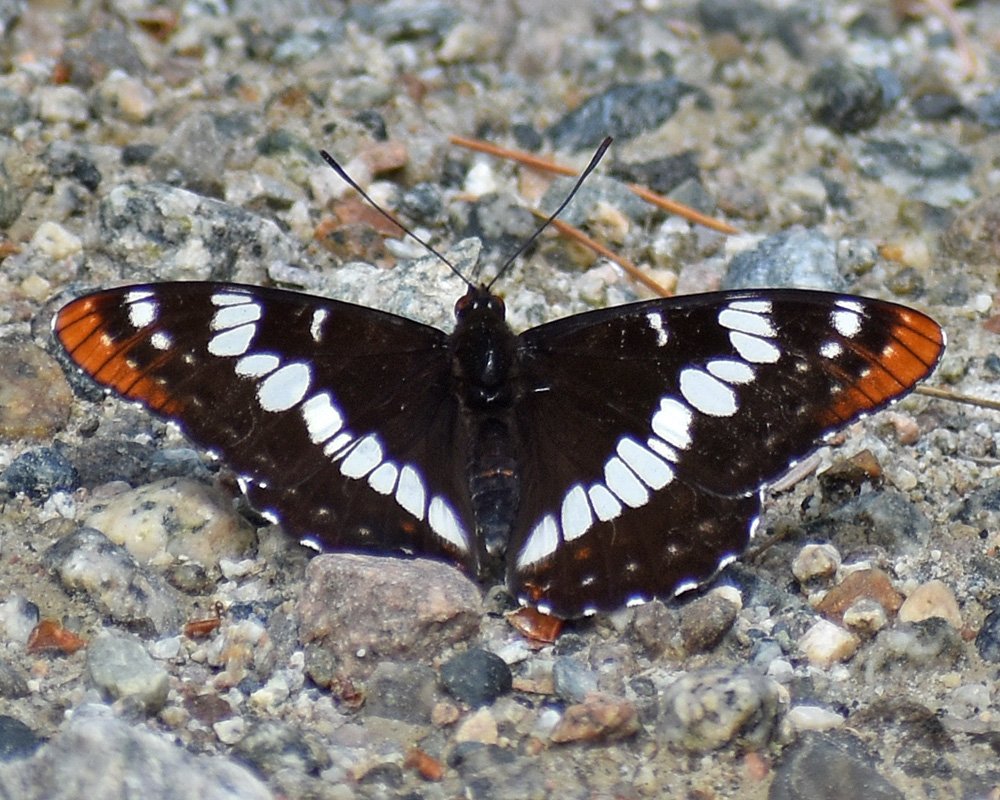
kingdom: Animalia
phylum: Arthropoda
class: Insecta
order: Lepidoptera
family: Nymphalidae
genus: Limenitis
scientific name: Limenitis lorquini
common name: Lorquin's Admiral
